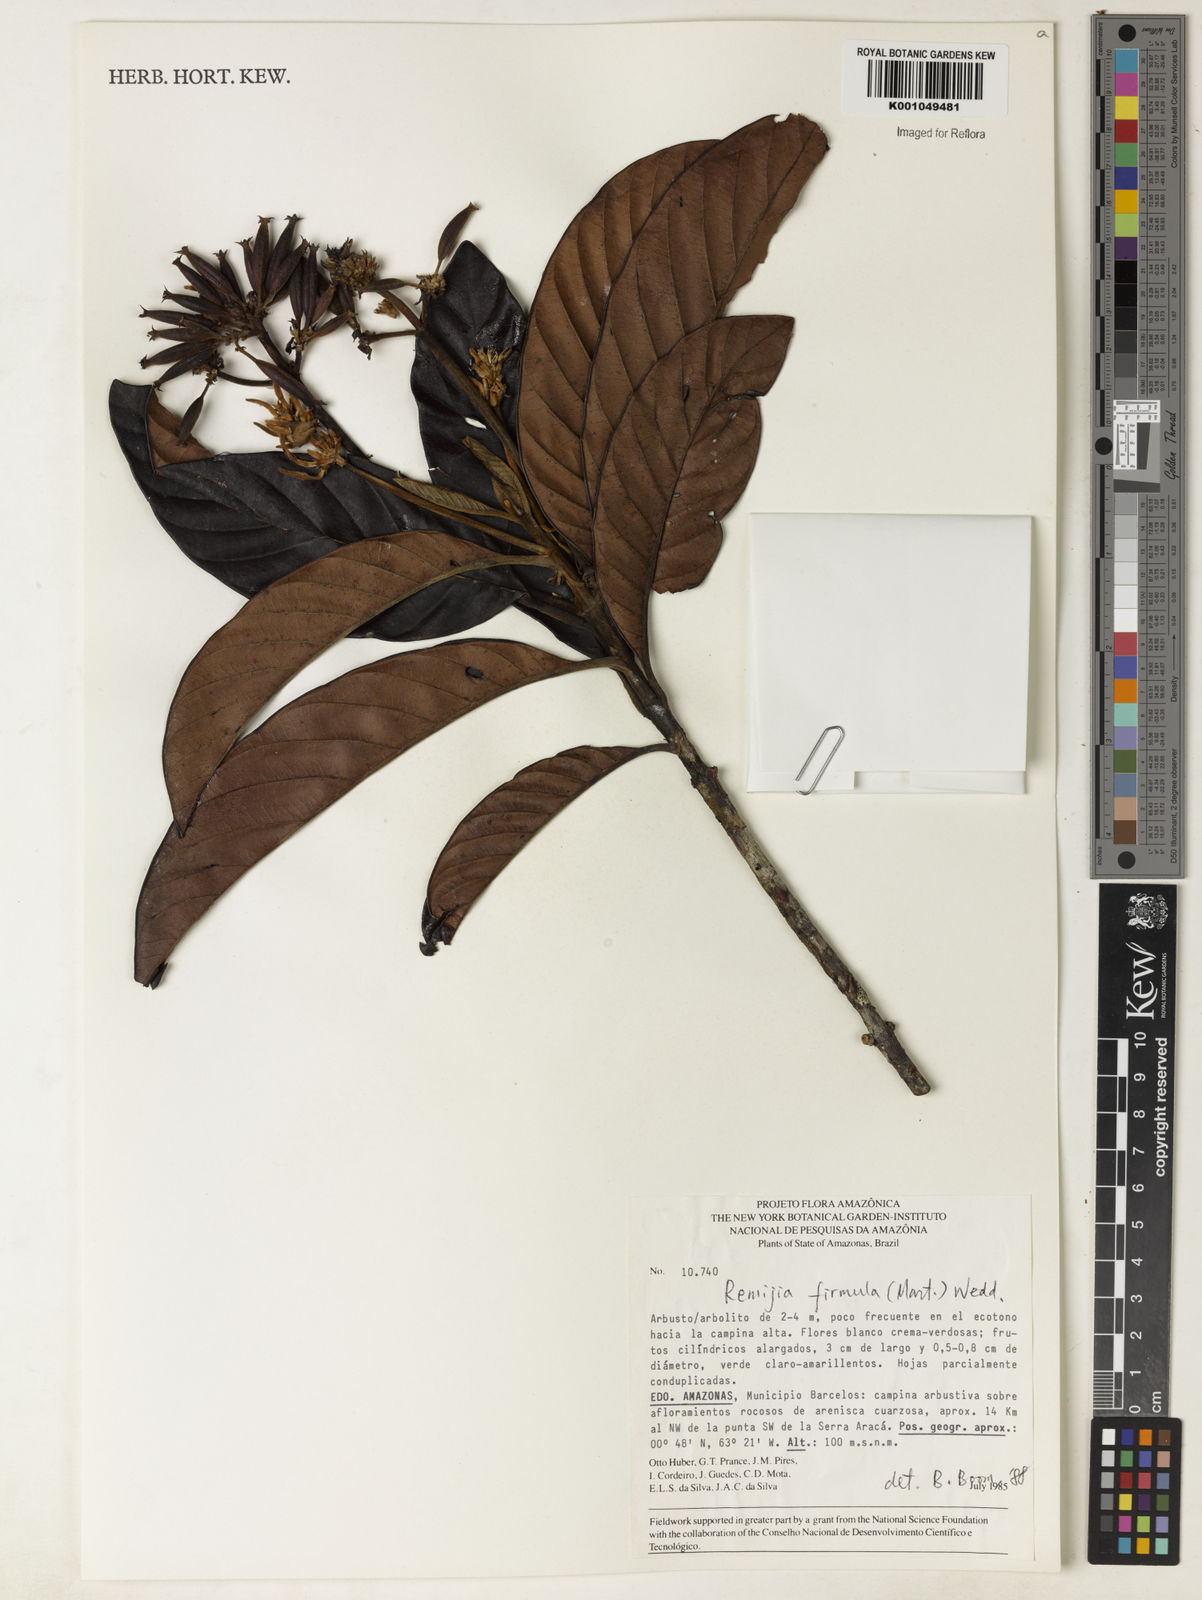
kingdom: Plantae
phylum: Tracheophyta
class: Magnoliopsida
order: Gentianales
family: Rubiaceae
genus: Remijia
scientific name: Remijia firmula
